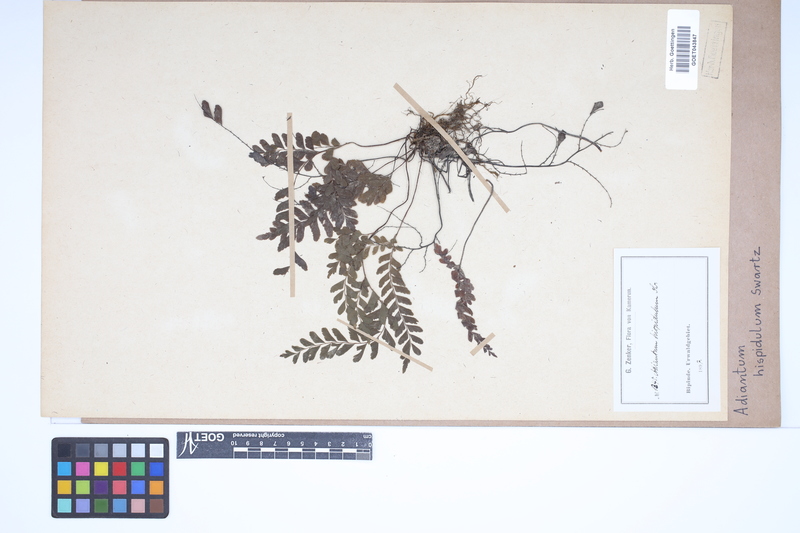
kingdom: Plantae
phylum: Tracheophyta
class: Polypodiopsida
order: Polypodiales
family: Pteridaceae
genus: Adiantum
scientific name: Adiantum hispidulum
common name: Rough maidenhair
